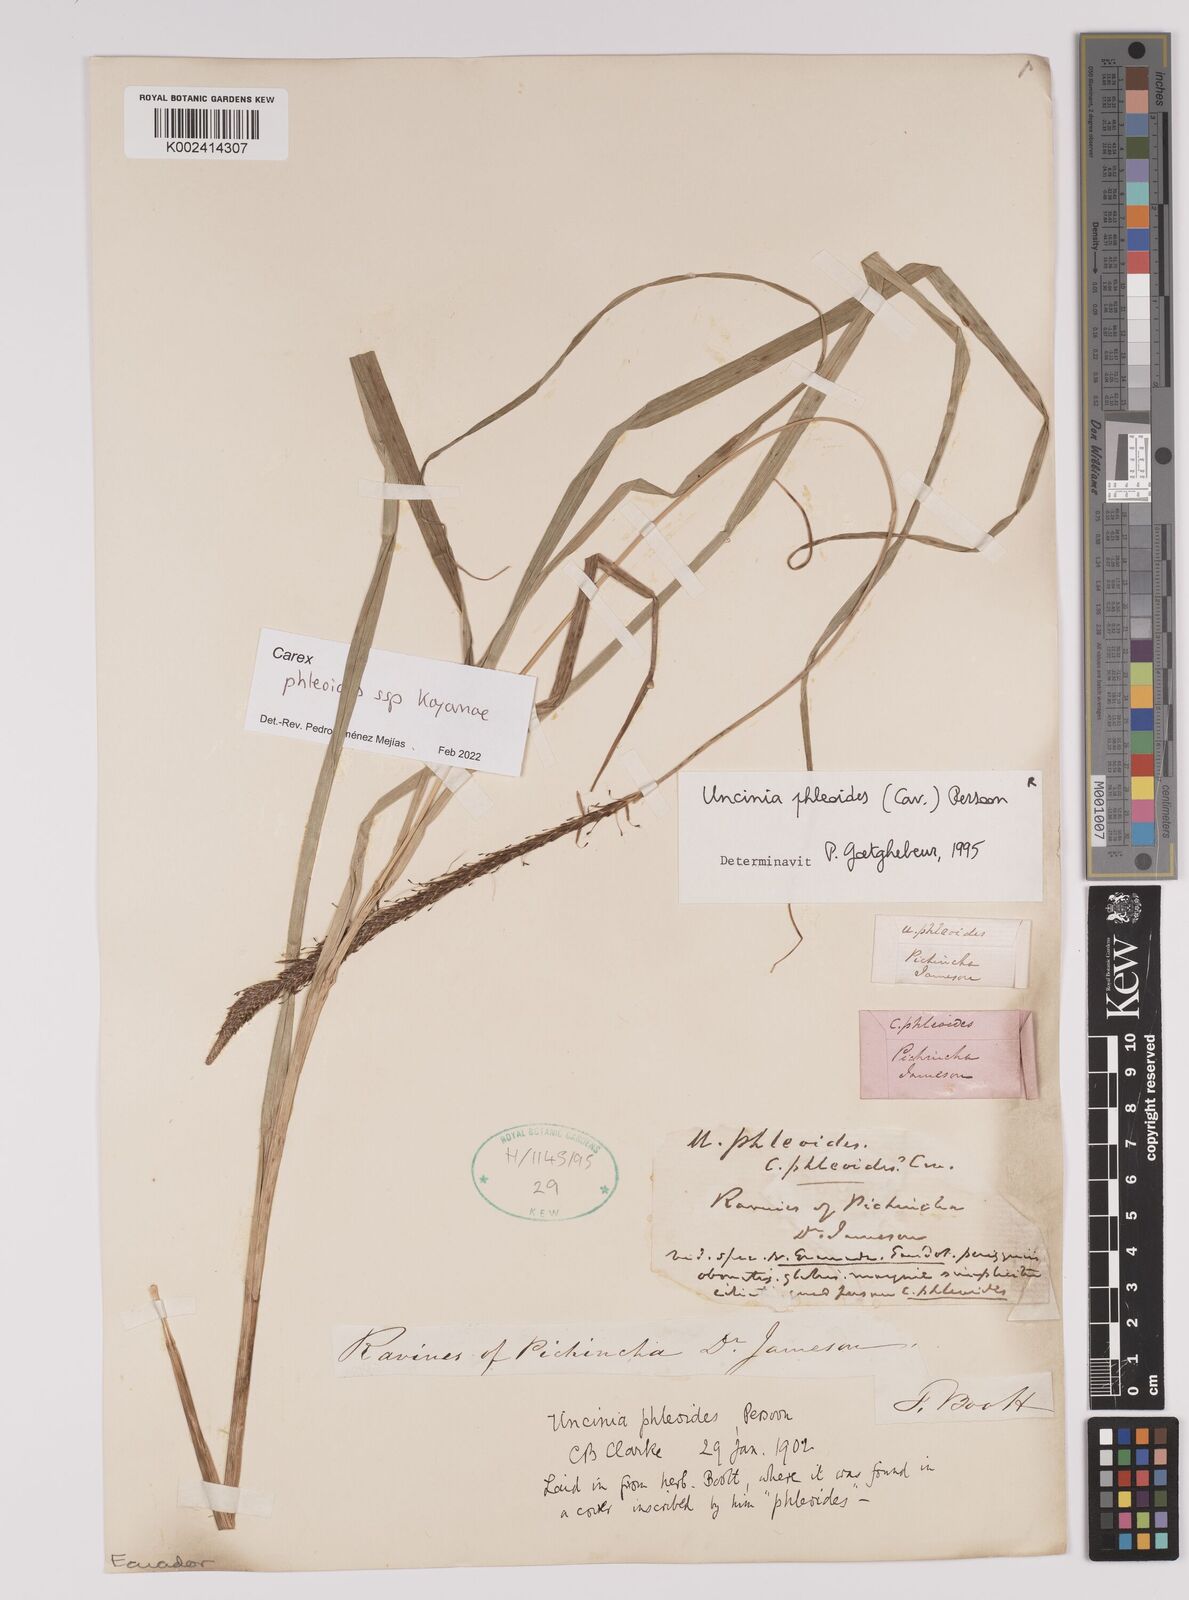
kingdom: Plantae
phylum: Tracheophyta
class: Liliopsida
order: Poales
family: Cyperaceae
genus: Carex
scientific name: Carex phleoides
